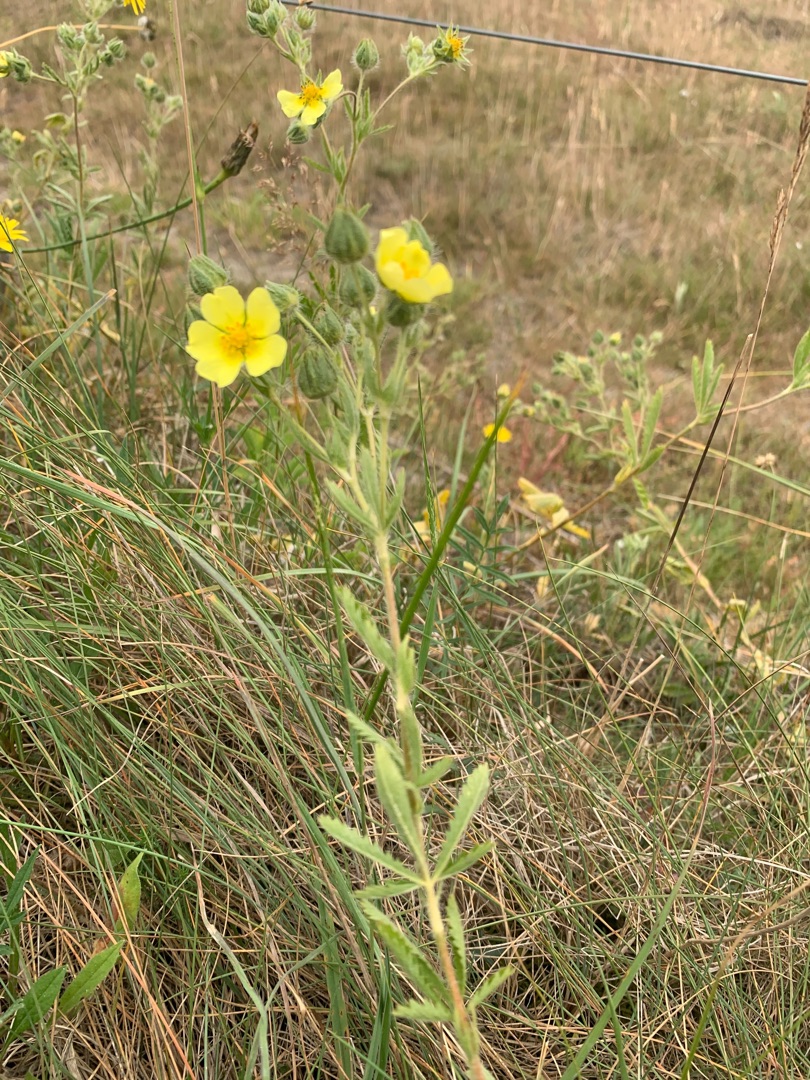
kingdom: Plantae
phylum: Tracheophyta
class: Magnoliopsida
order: Rosales
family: Rosaceae
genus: Potentilla
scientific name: Potentilla recta
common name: Rank potentil
